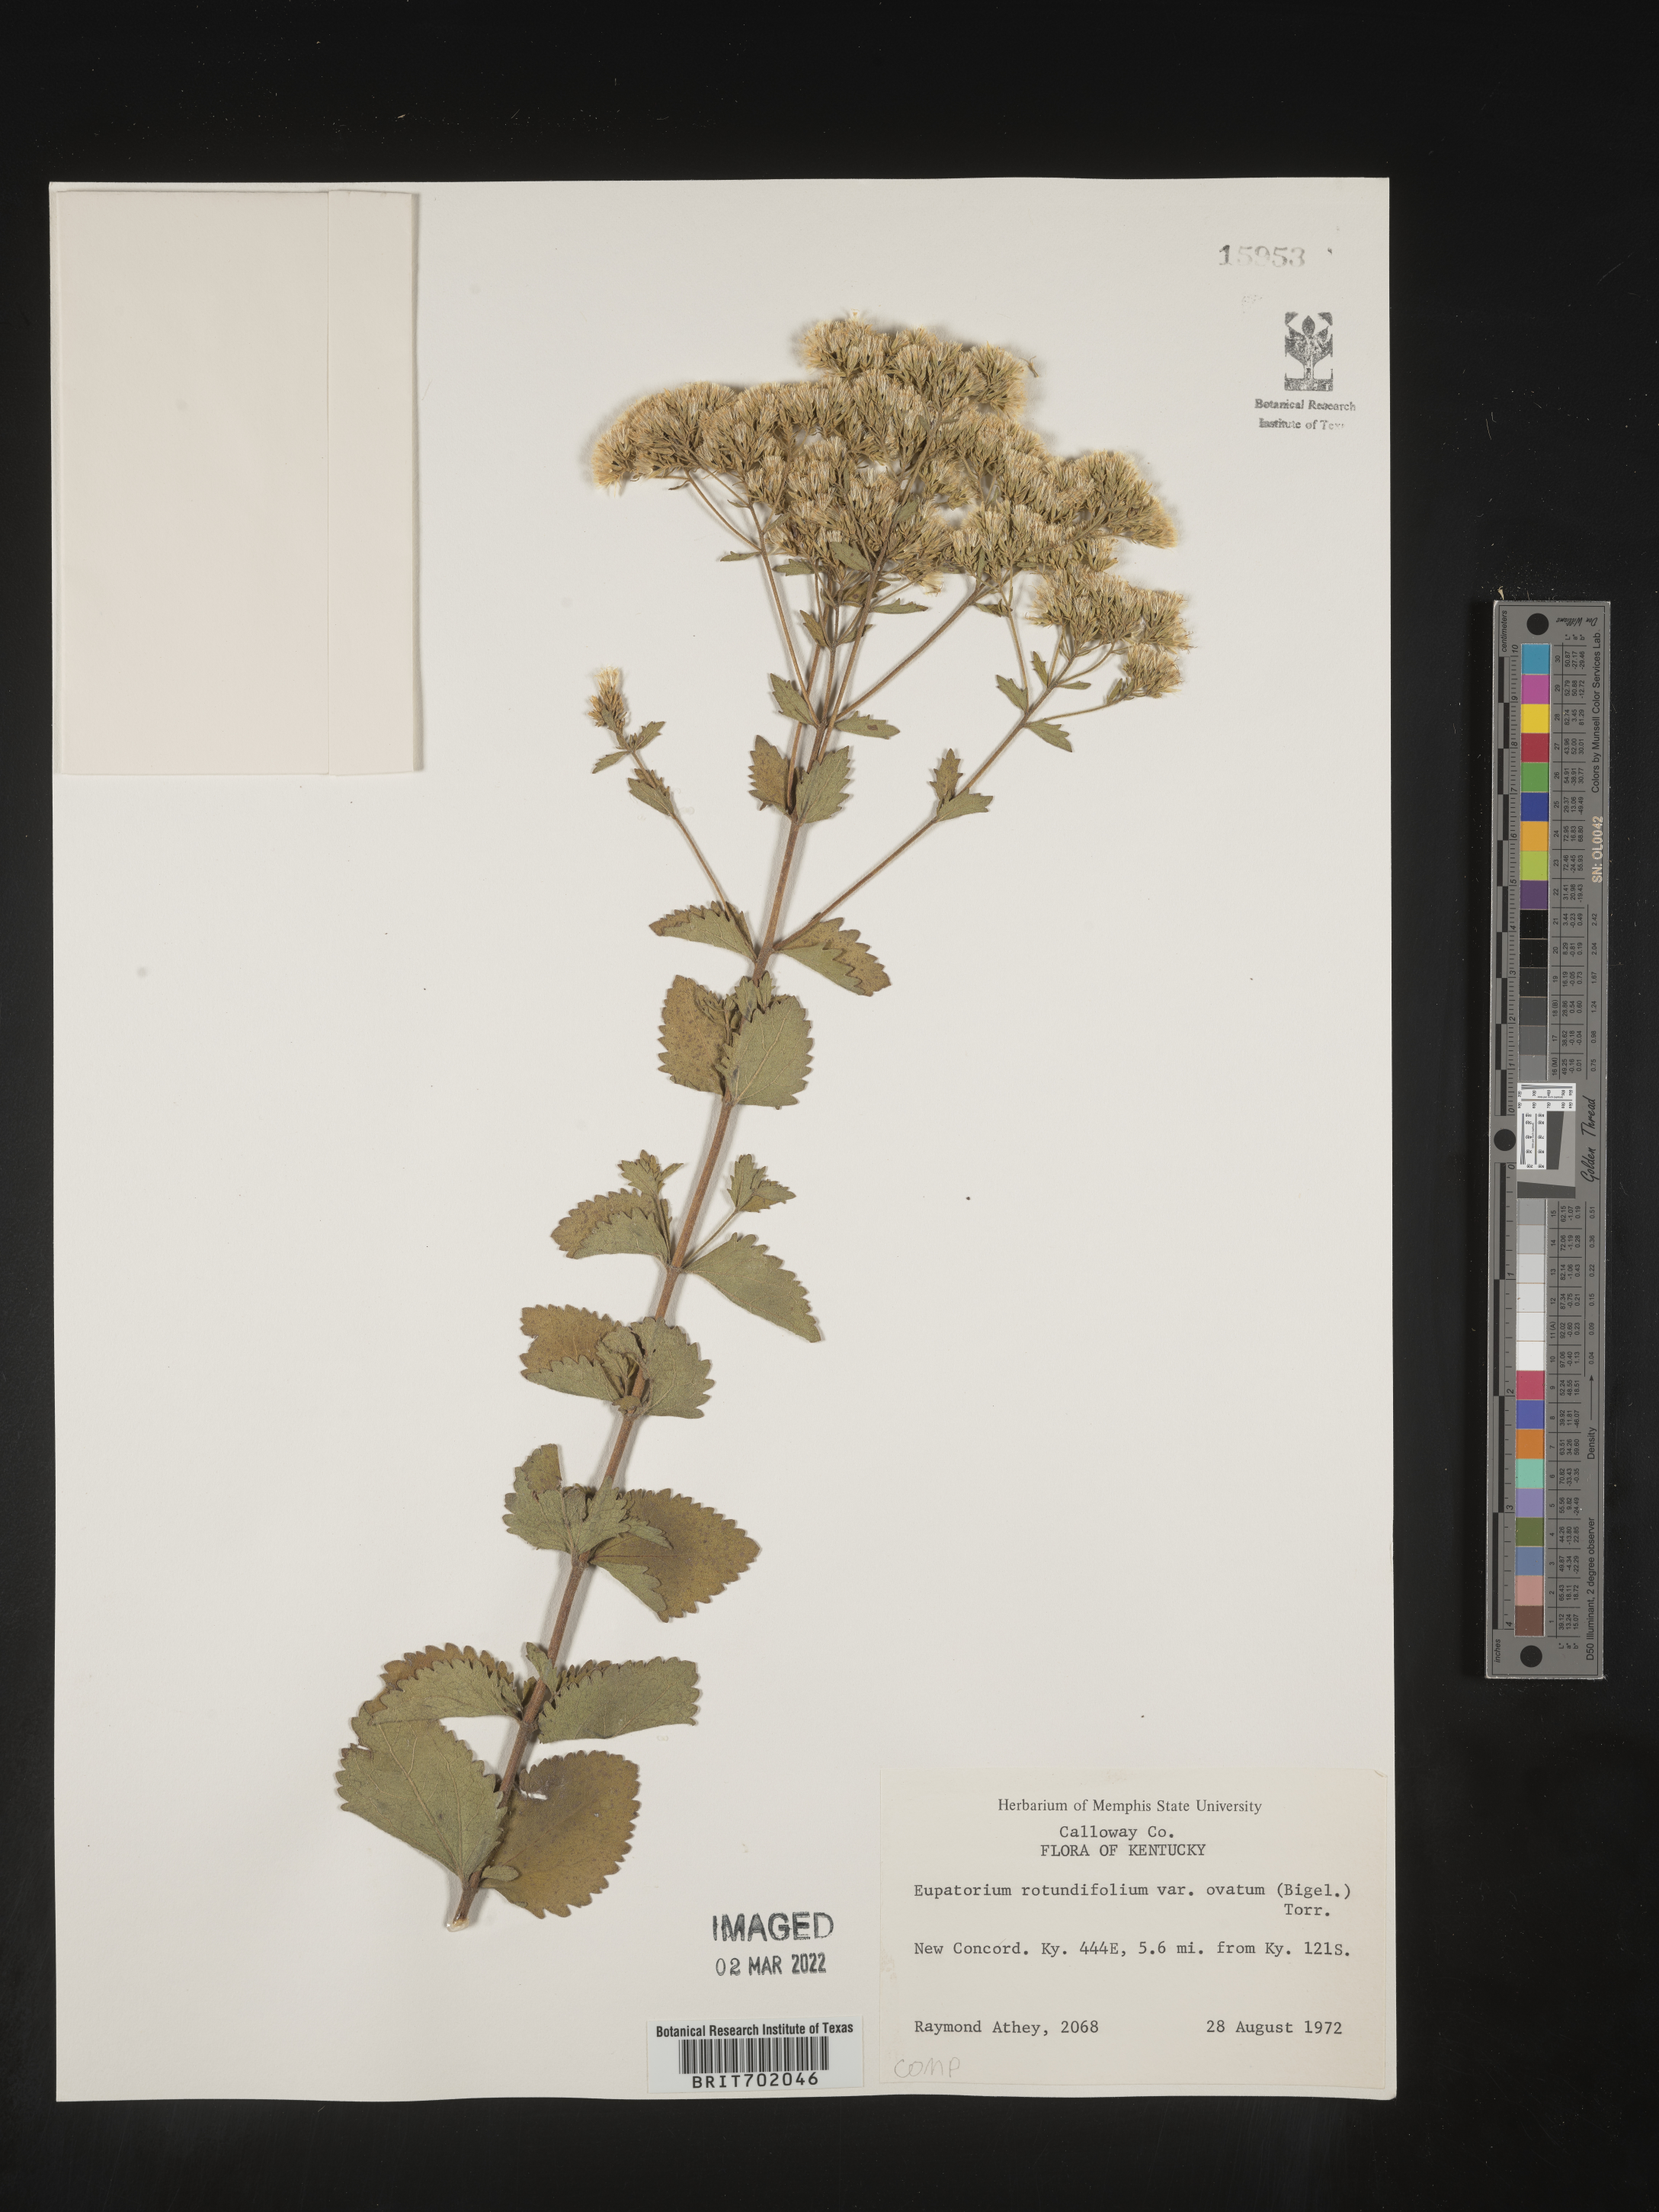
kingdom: Plantae
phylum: Tracheophyta
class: Magnoliopsida
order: Asterales
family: Asteraceae
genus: Eupatorium
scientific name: Eupatorium rotundifolium
